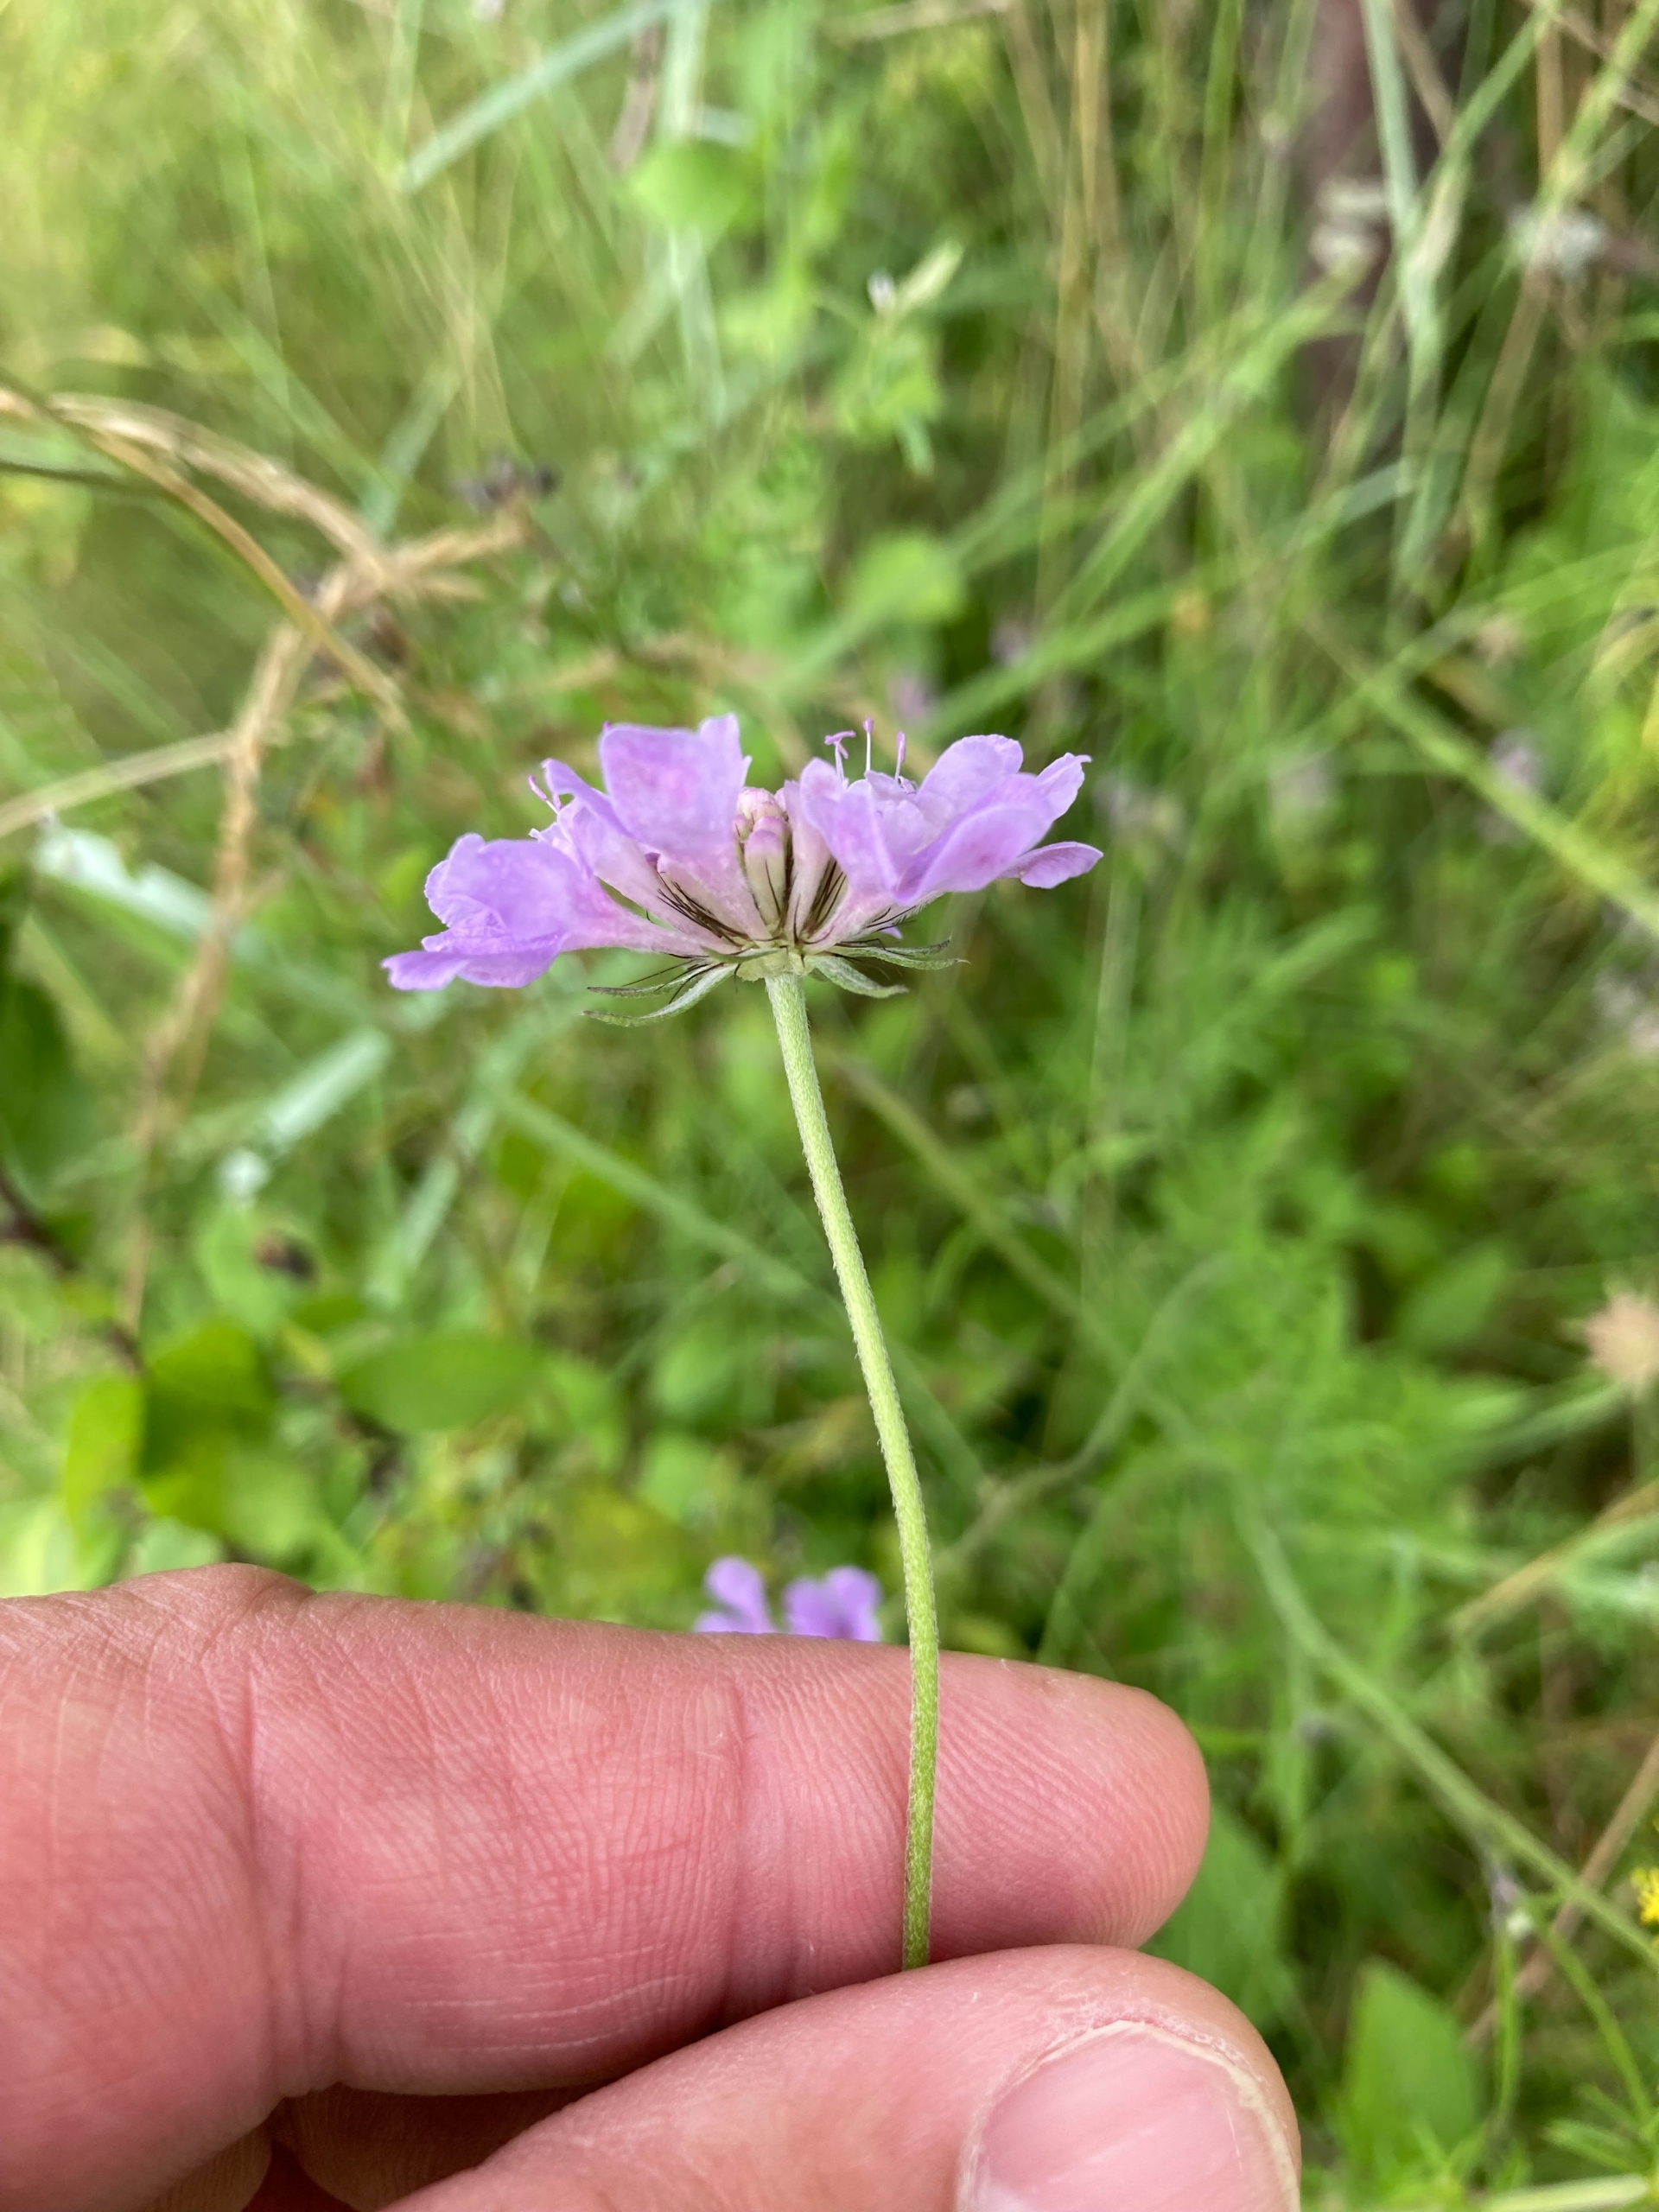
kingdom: Plantae
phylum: Tracheophyta
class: Magnoliopsida
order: Dipsacales
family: Caprifoliaceae
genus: Scabiosa
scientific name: Scabiosa columbaria
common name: Due-skabiose
